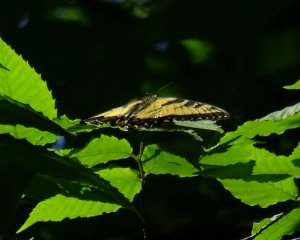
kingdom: Animalia
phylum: Arthropoda
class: Insecta
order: Lepidoptera
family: Papilionidae
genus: Pterourus
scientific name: Pterourus glaucus
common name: Eastern Tiger Swallowtail
